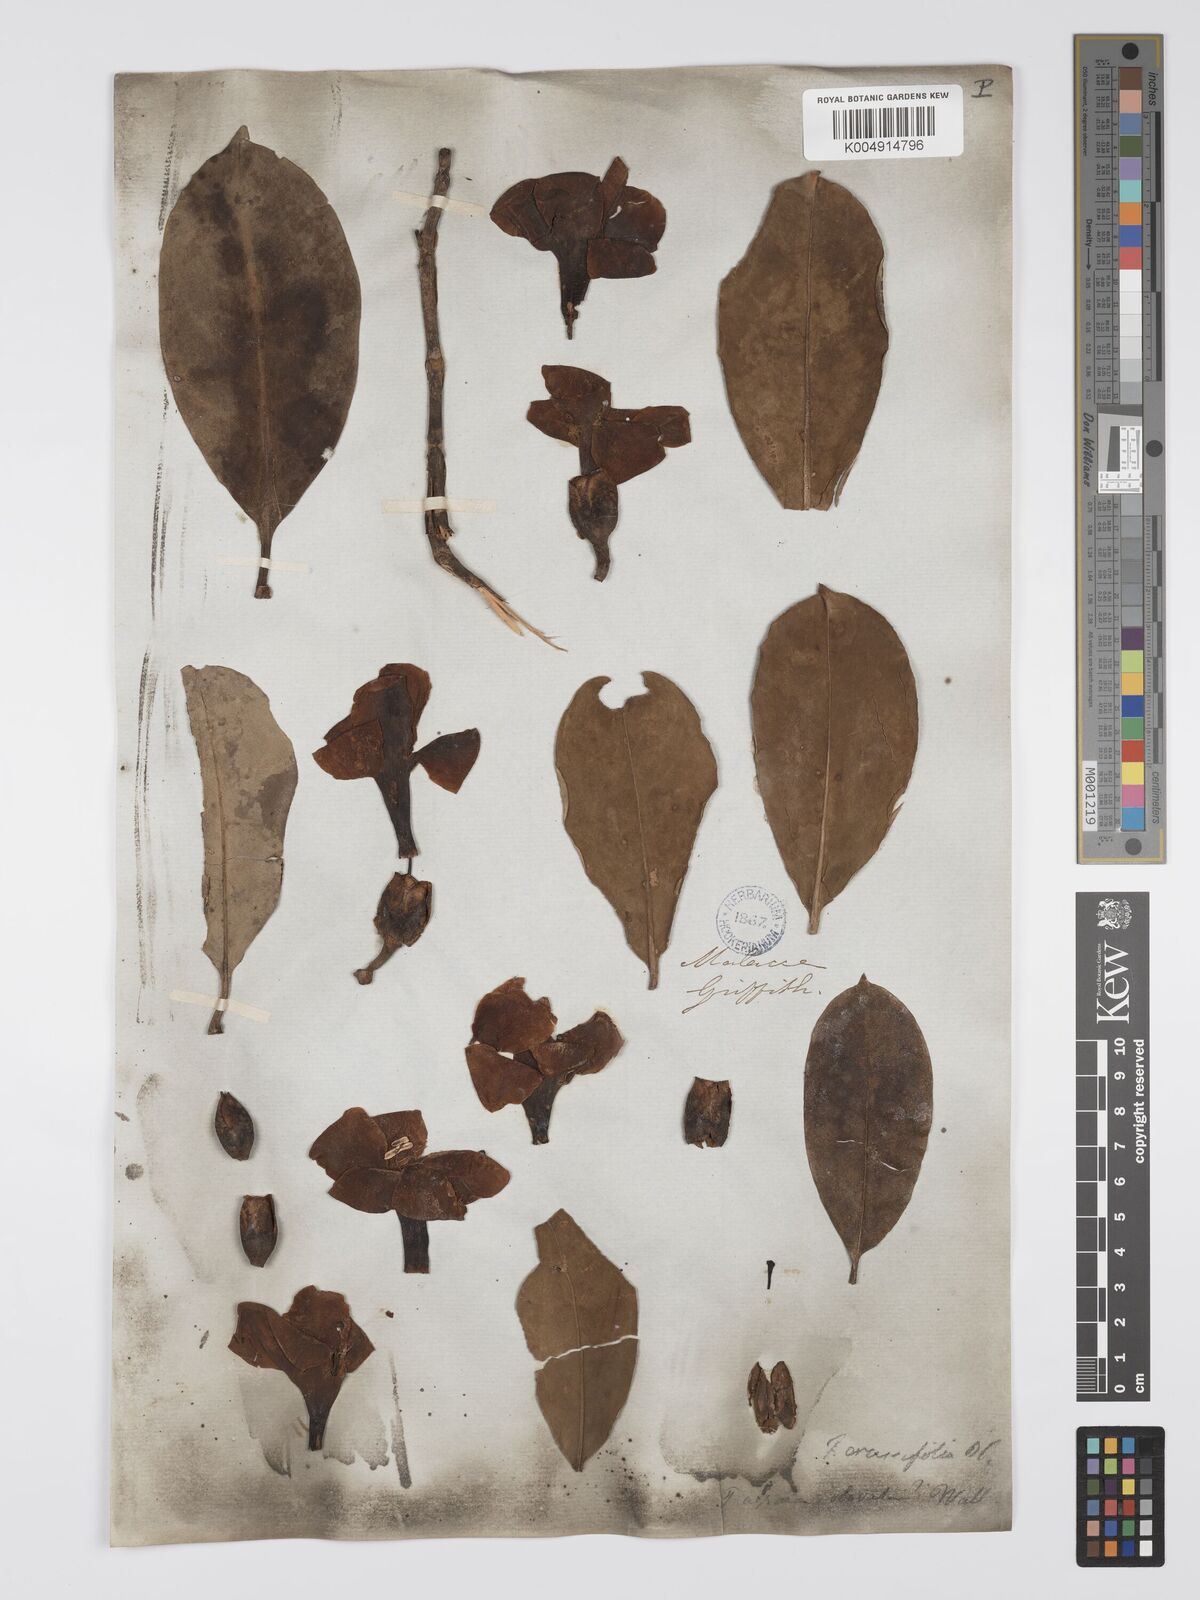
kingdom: Plantae
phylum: Tracheophyta
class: Magnoliopsida
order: Gentianales
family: Gentianaceae
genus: Fagraea
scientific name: Fagraea oblonga
